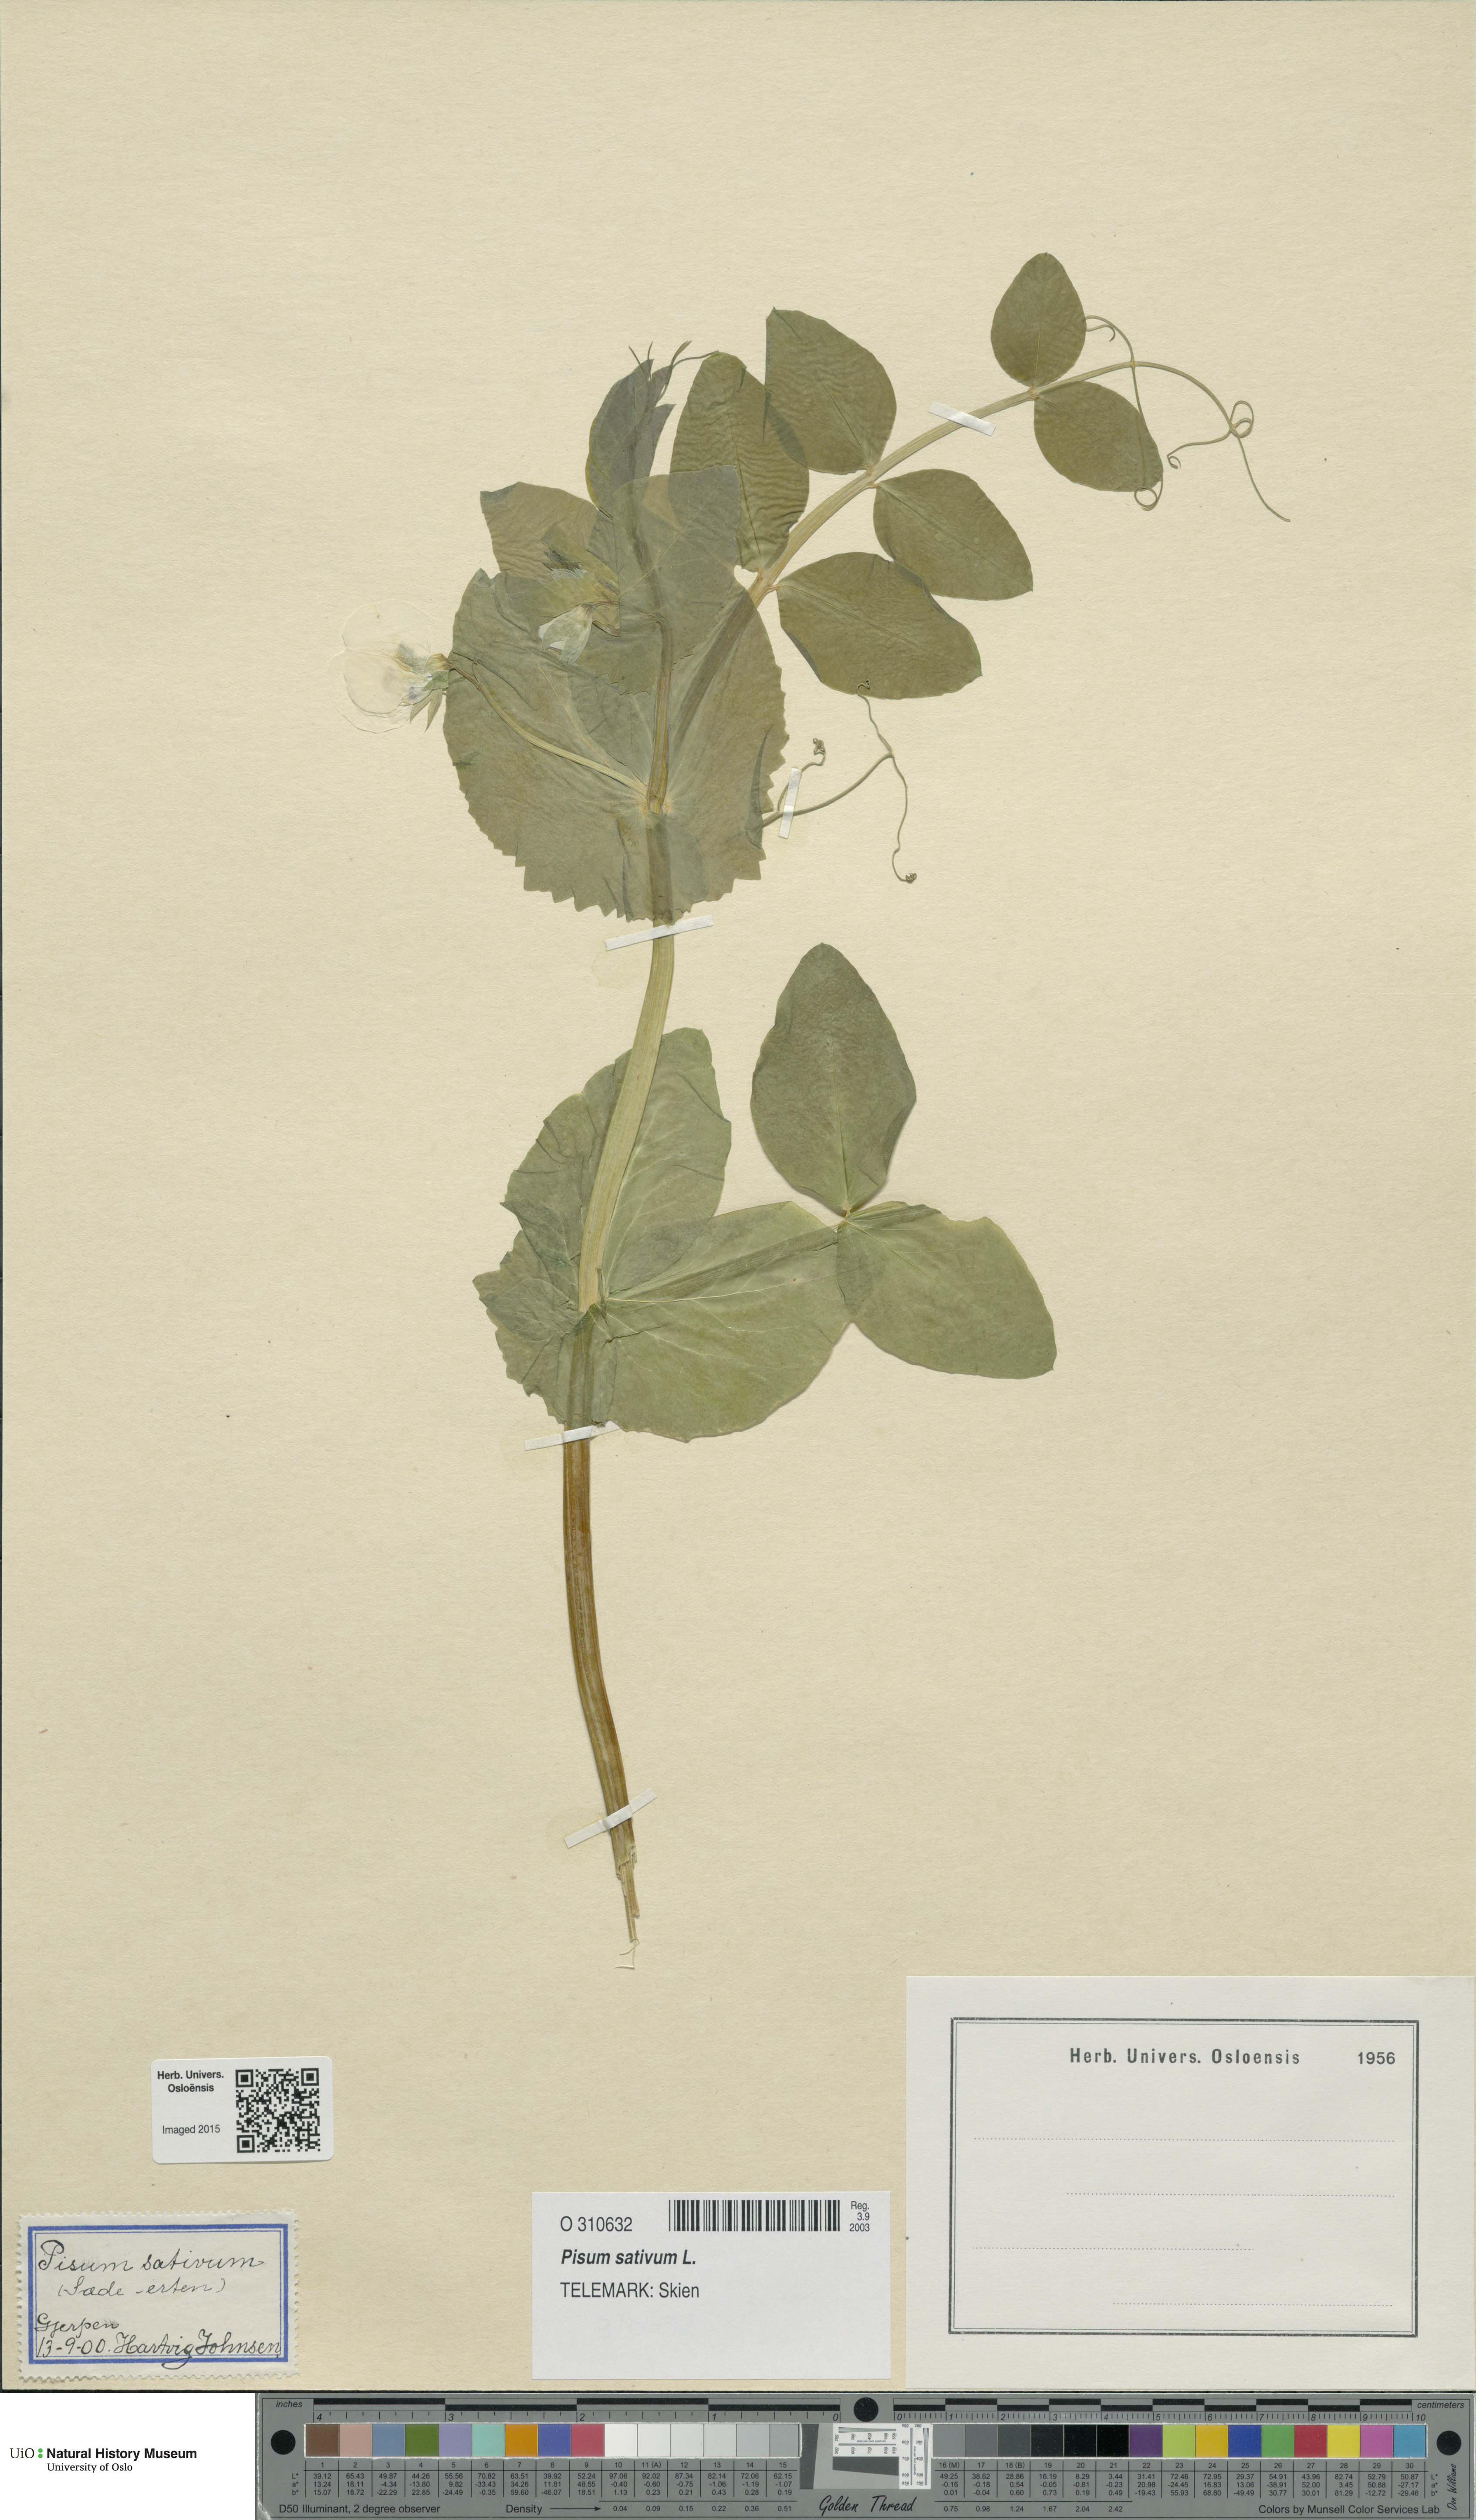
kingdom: Plantae
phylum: Tracheophyta
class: Magnoliopsida
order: Fabales
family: Fabaceae
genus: Lathyrus
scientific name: Lathyrus oleraceus
